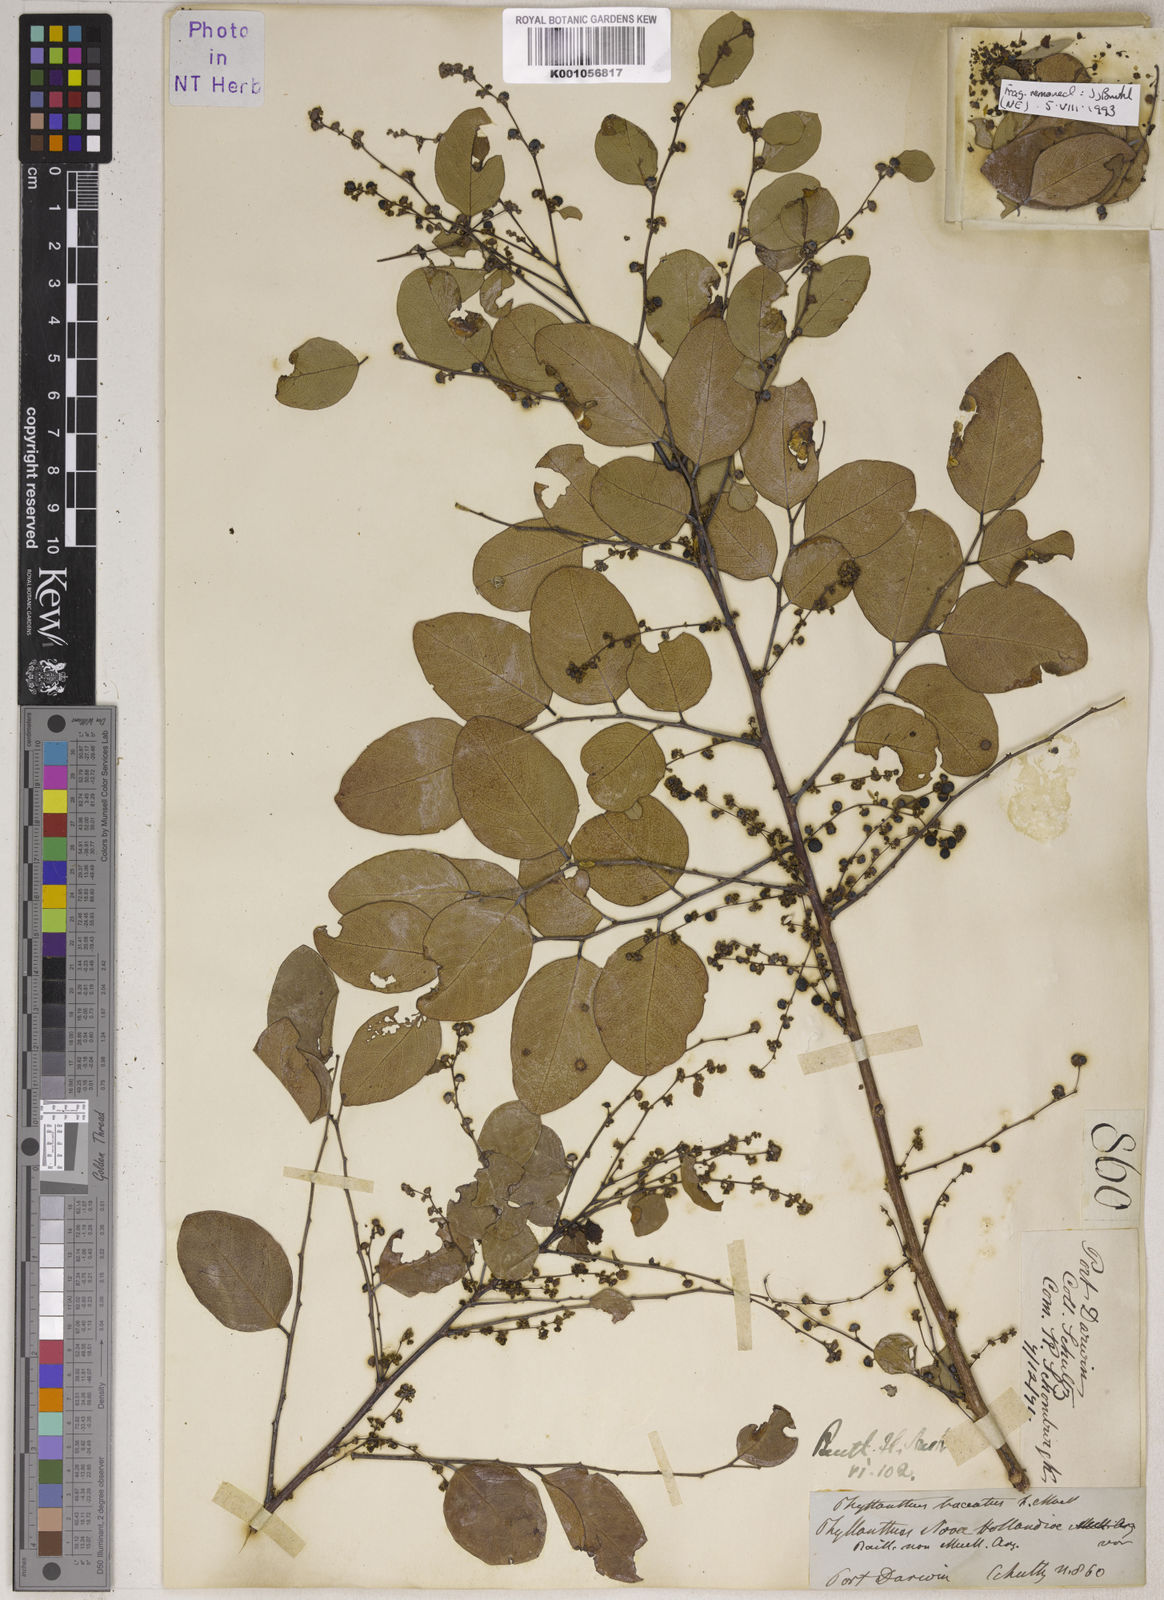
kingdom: Plantae
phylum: Tracheophyta
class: Magnoliopsida
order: Malpighiales
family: Phyllanthaceae
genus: Phyllanthus
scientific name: Phyllanthus
